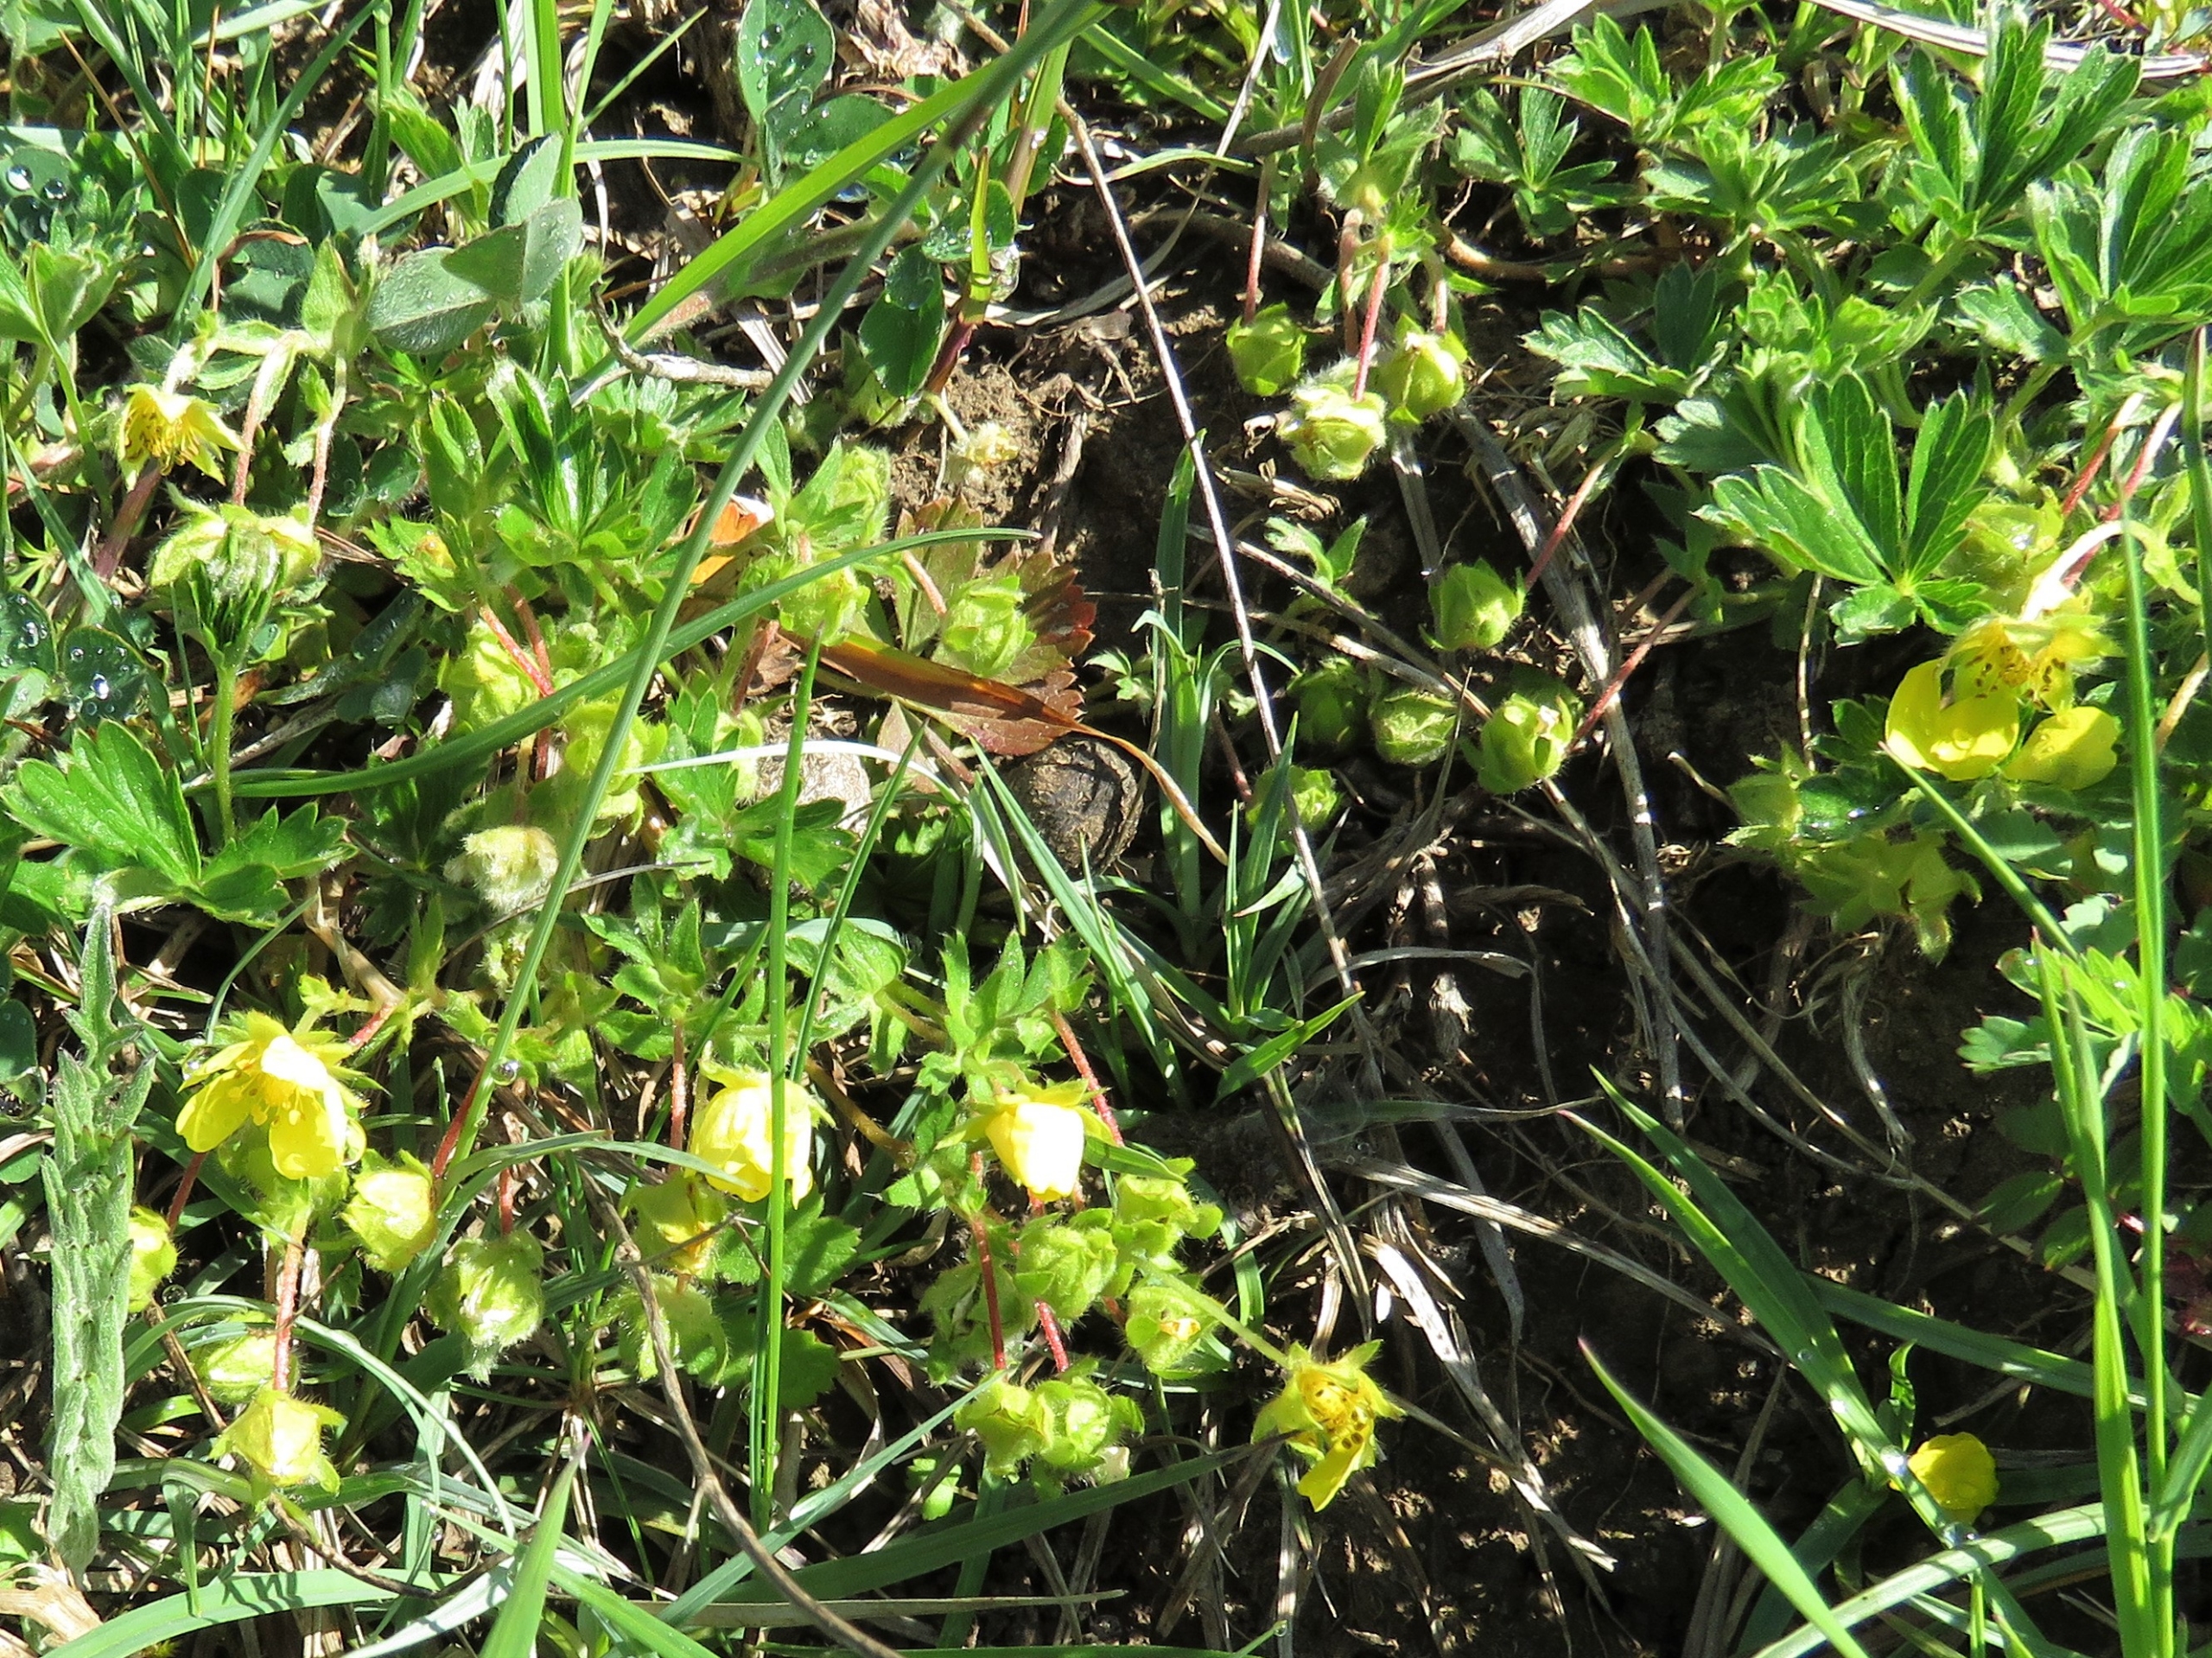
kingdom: Plantae
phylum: Tracheophyta
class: Magnoliopsida
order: Rosales
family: Rosaceae
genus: Potentilla
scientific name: Potentilla verna
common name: Vår-potentil
